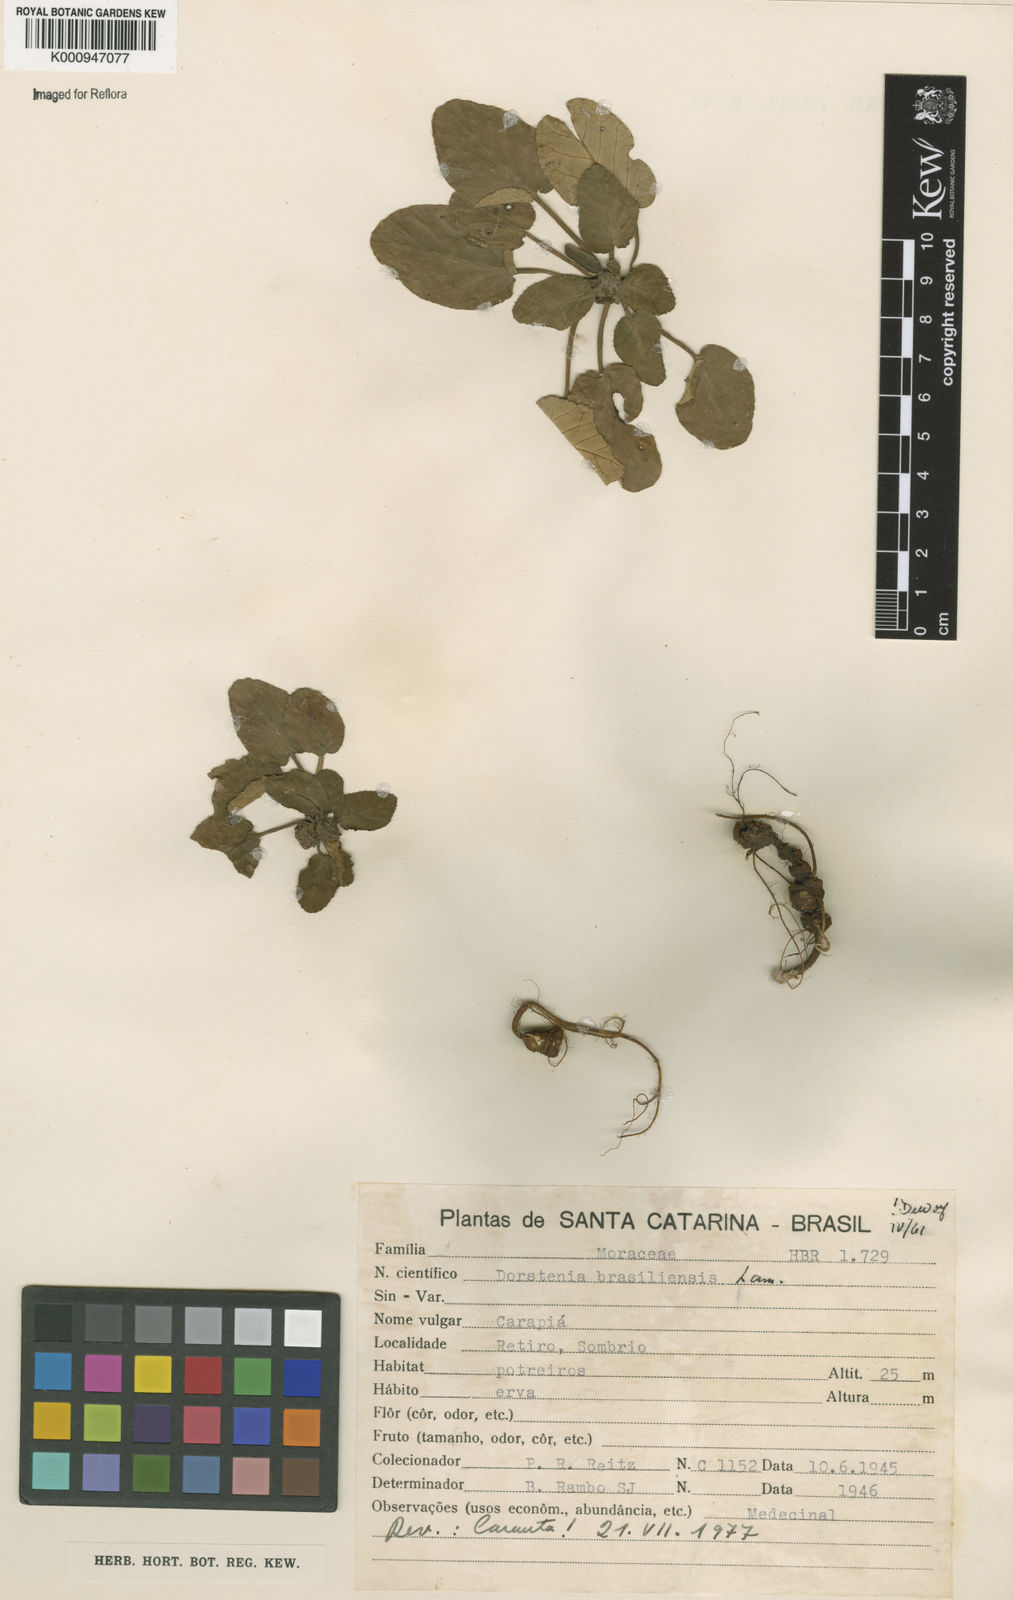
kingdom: Plantae
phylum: Tracheophyta
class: Magnoliopsida
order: Rosales
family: Moraceae
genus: Dorstenia
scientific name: Dorstenia brasiliensis
